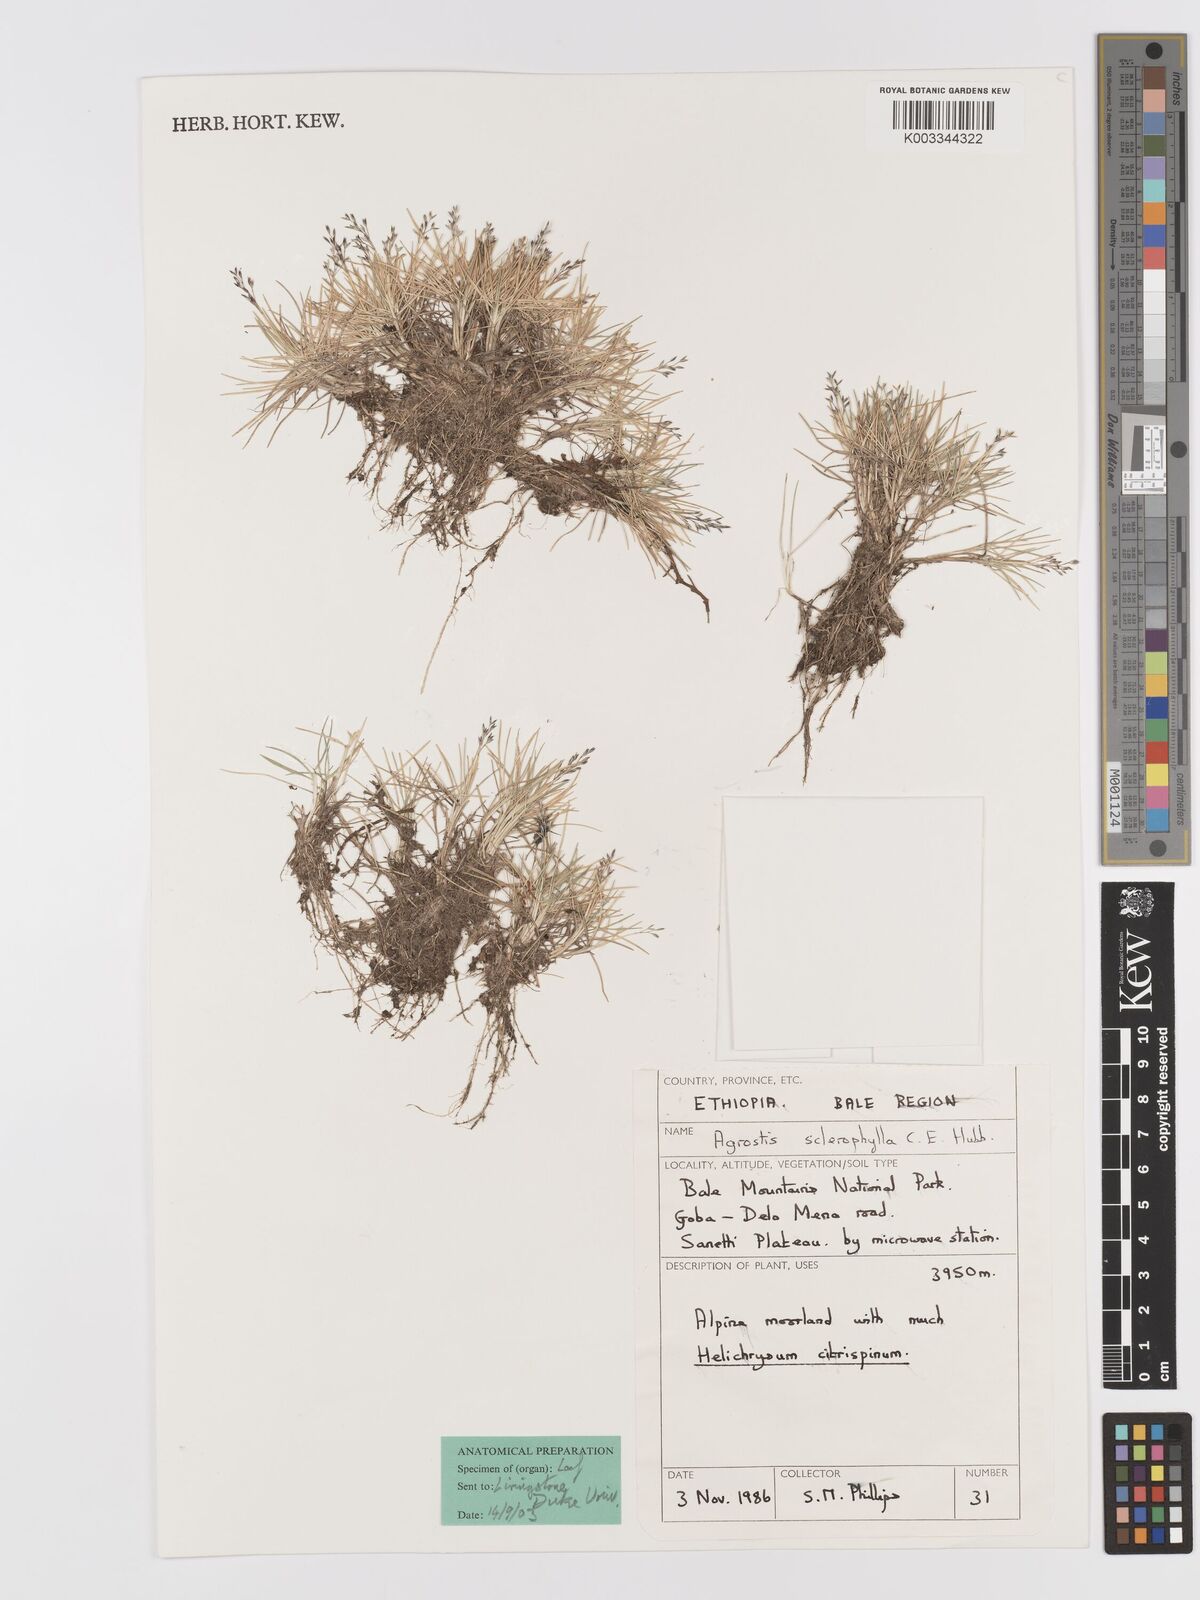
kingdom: Plantae
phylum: Tracheophyta
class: Liliopsida
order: Poales
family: Poaceae
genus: Agrostis
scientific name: Agrostis sclerophylla
